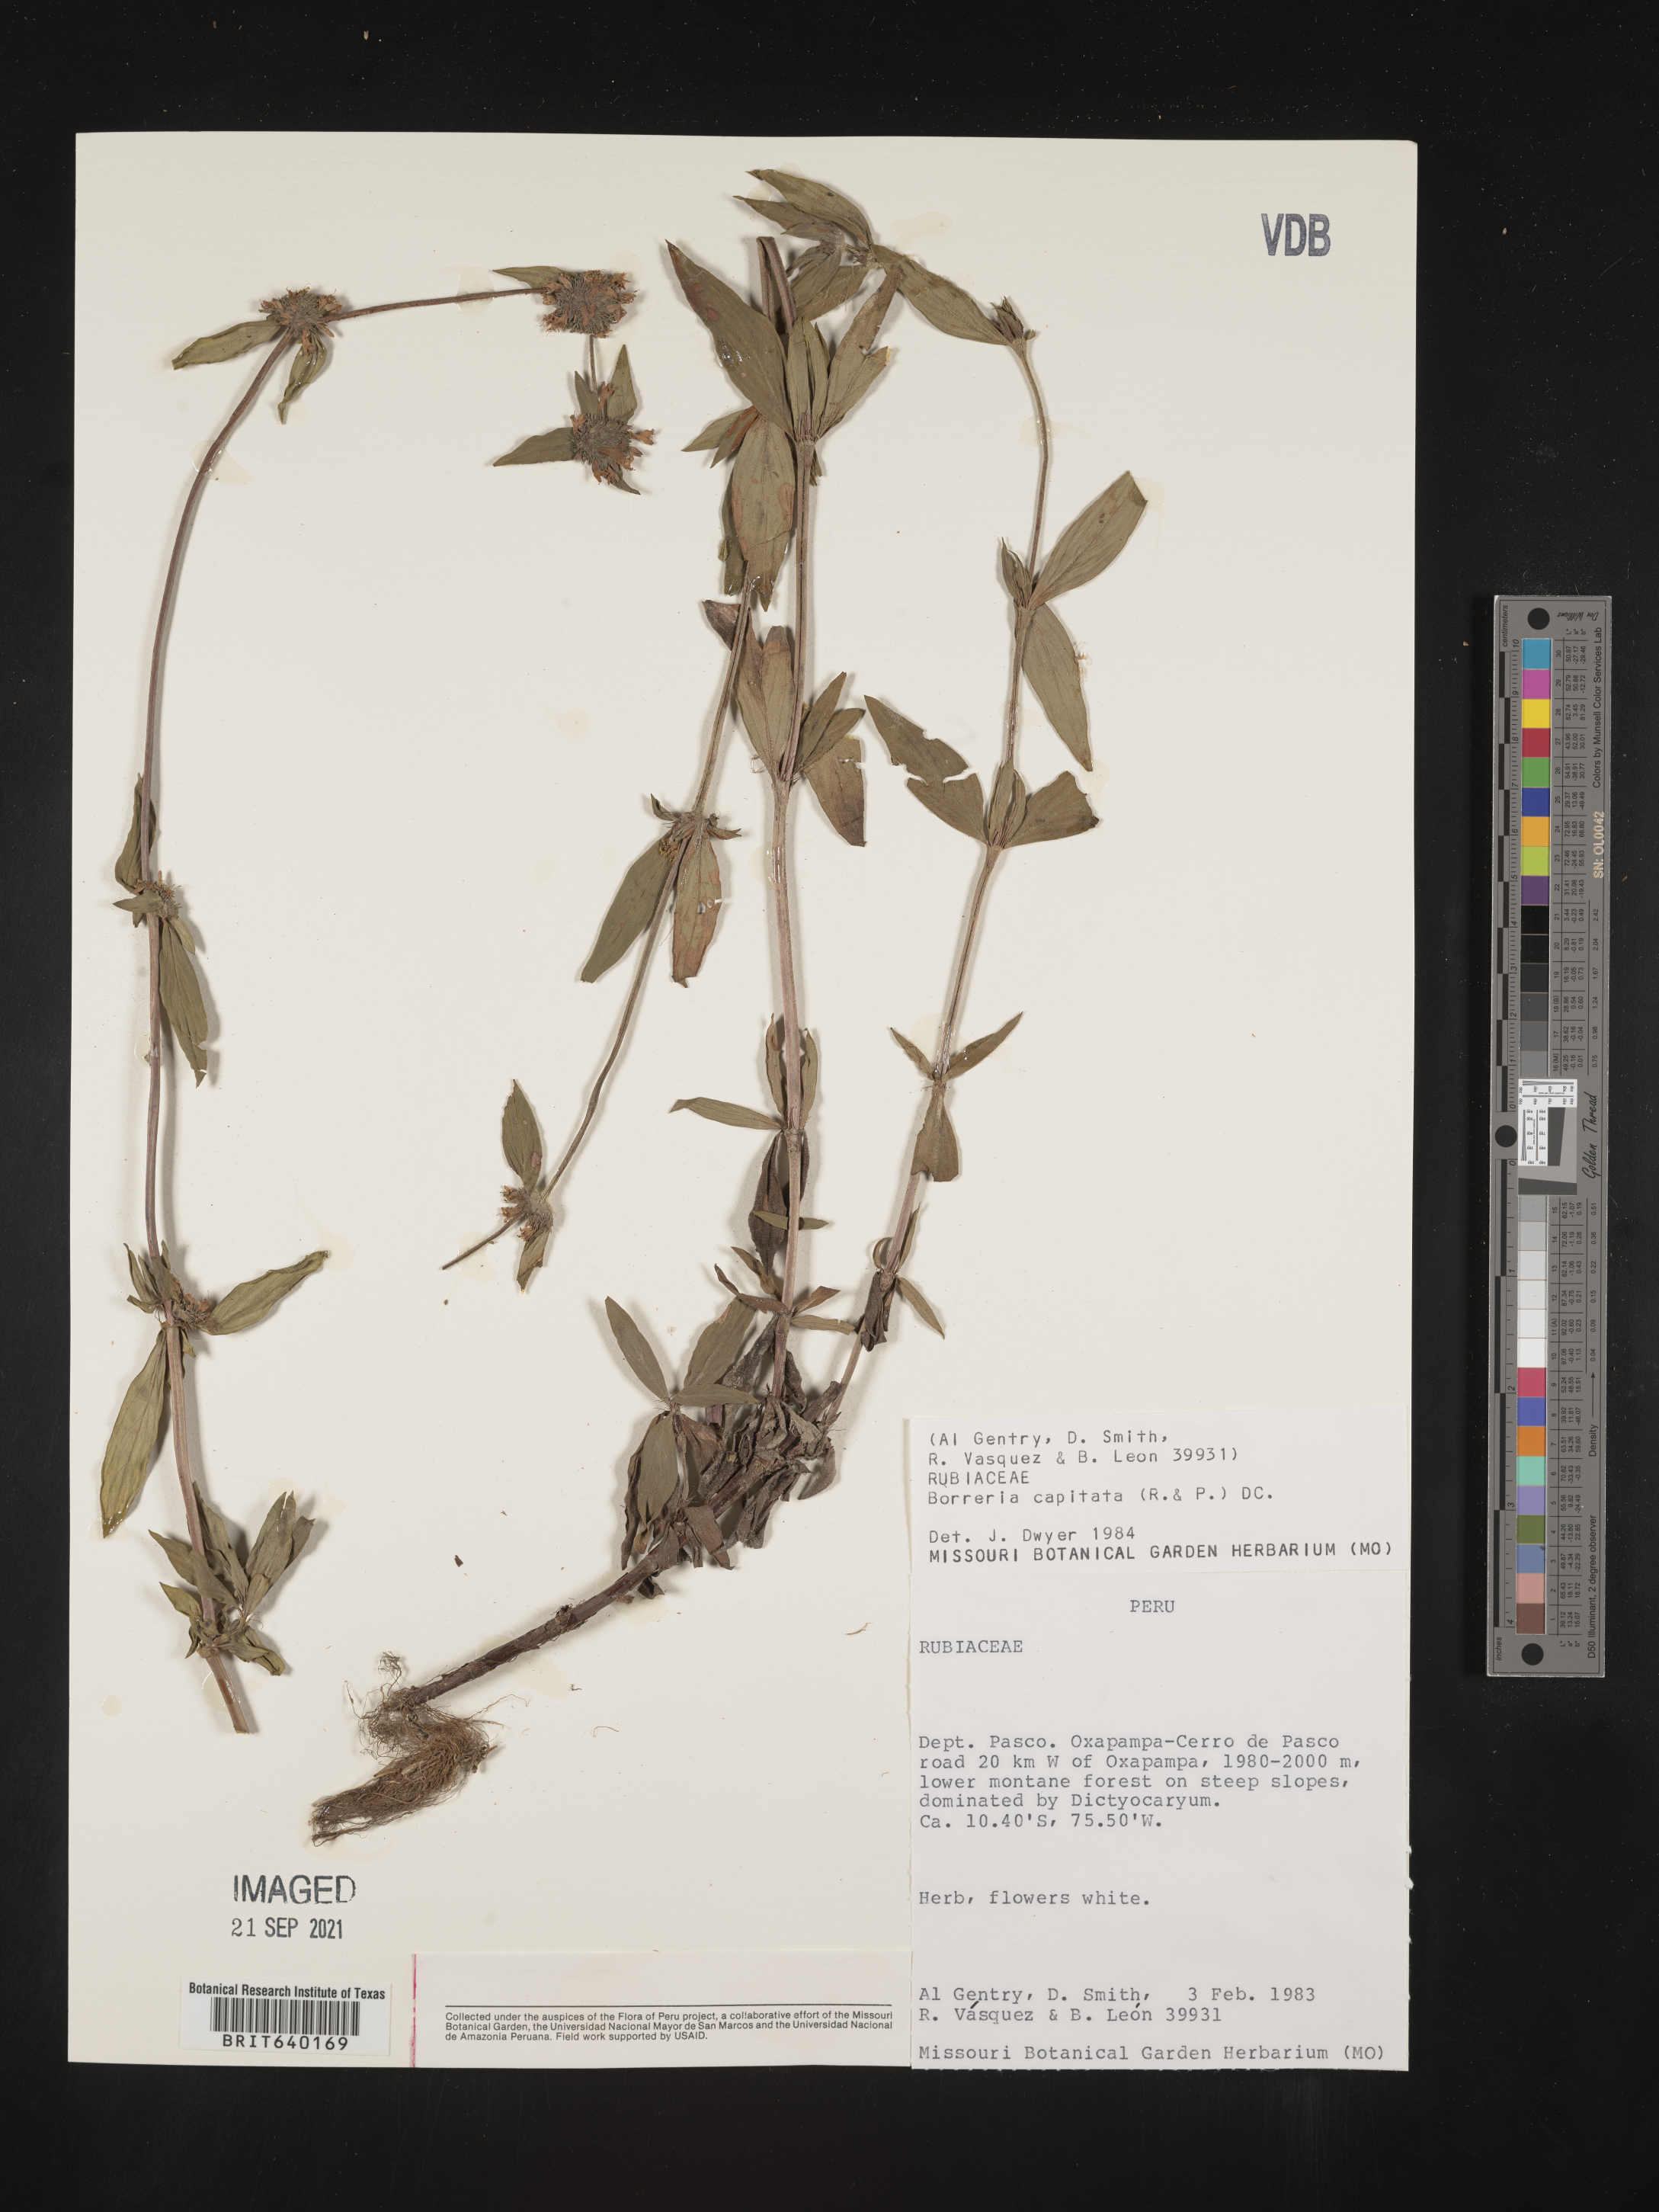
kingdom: Plantae
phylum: Tracheophyta
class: Magnoliopsida
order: Gentianales
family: Rubiaceae
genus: Spermacoce
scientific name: Spermacoce
